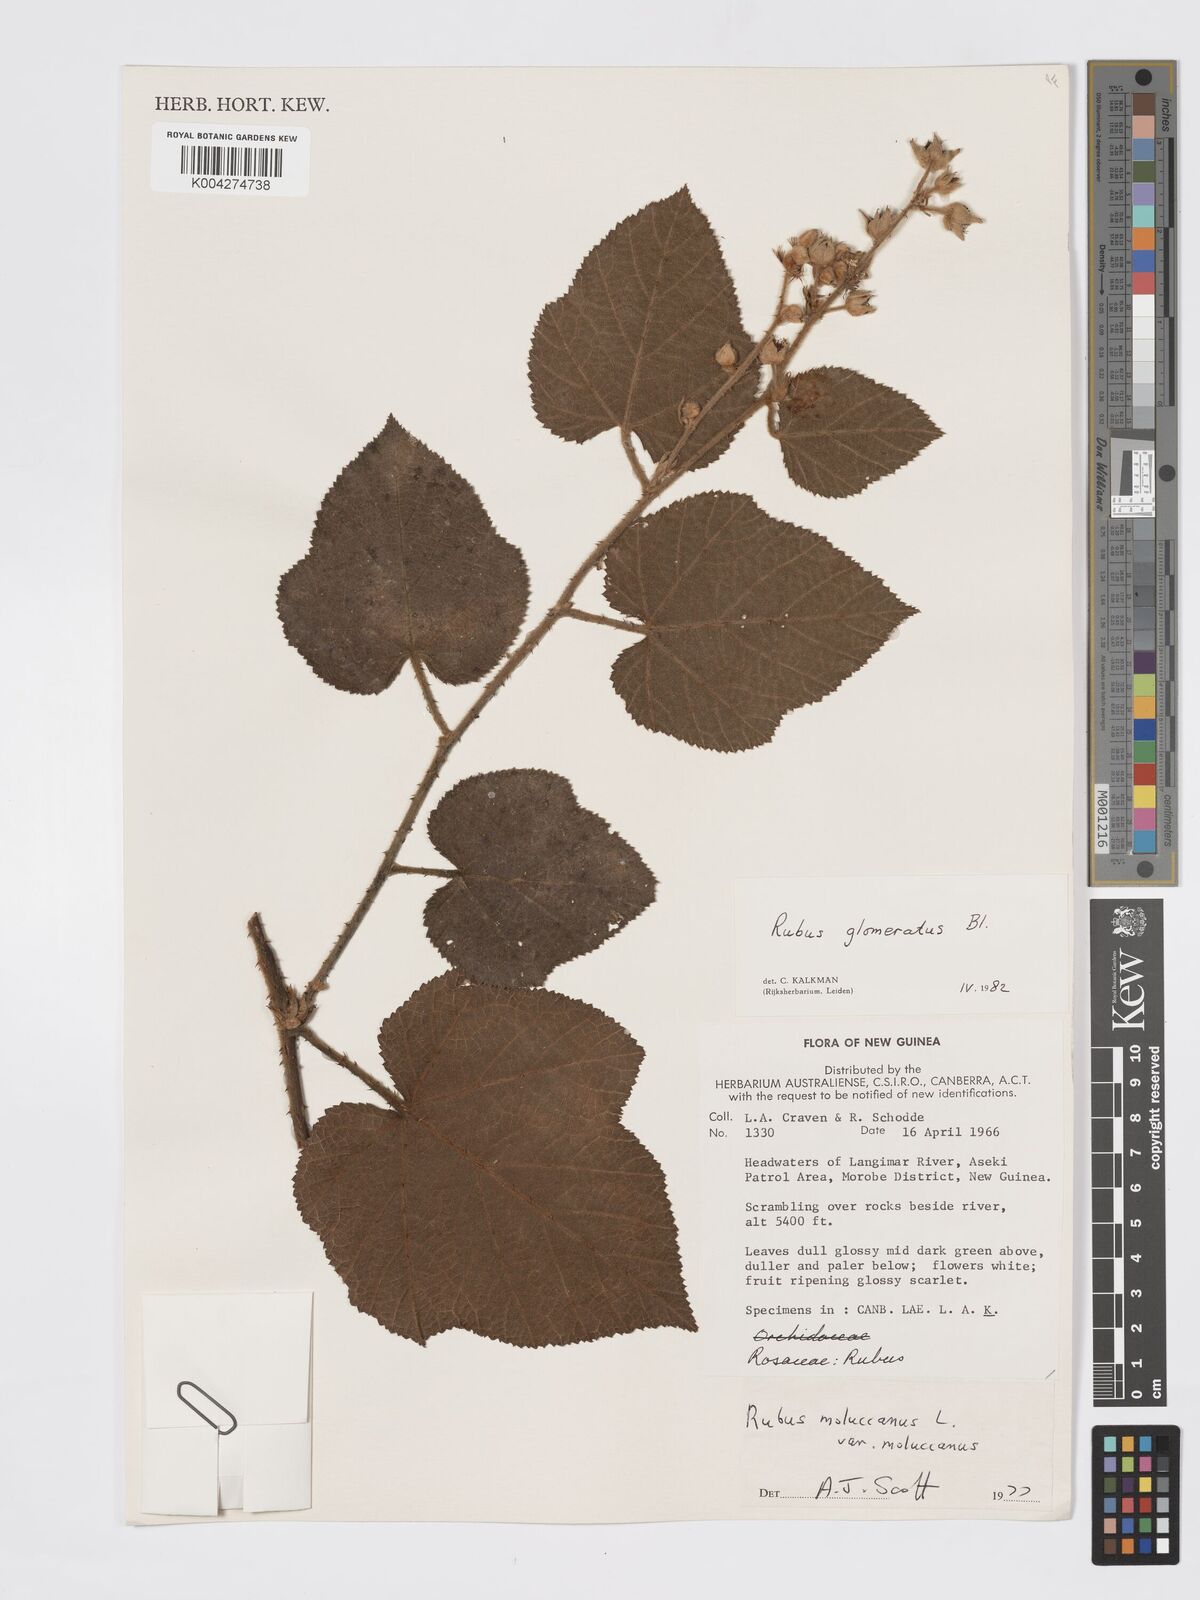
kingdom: Plantae
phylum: Tracheophyta
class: Magnoliopsida
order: Rosales
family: Rosaceae
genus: Rubus
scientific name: Rubus
